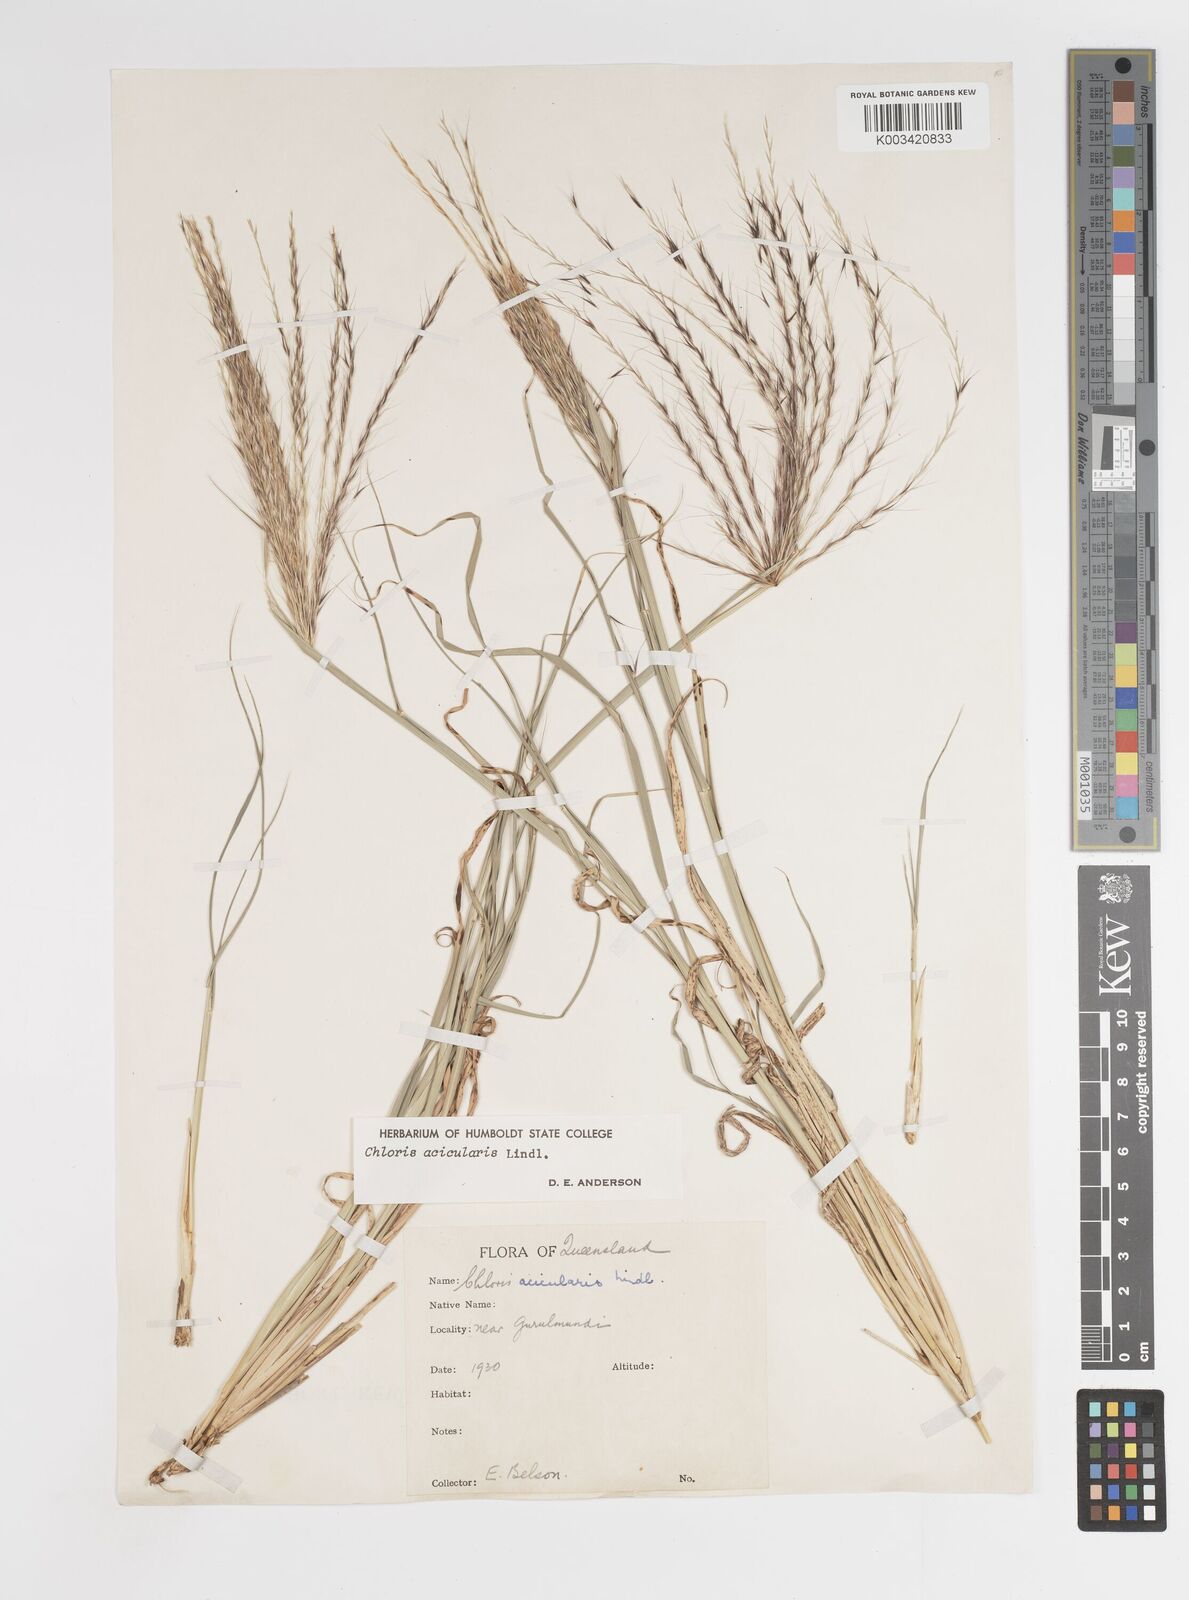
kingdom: Plantae
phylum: Tracheophyta
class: Liliopsida
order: Poales
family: Poaceae
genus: Enteropogon
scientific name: Enteropogon acicularis
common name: Curly windmill grass
